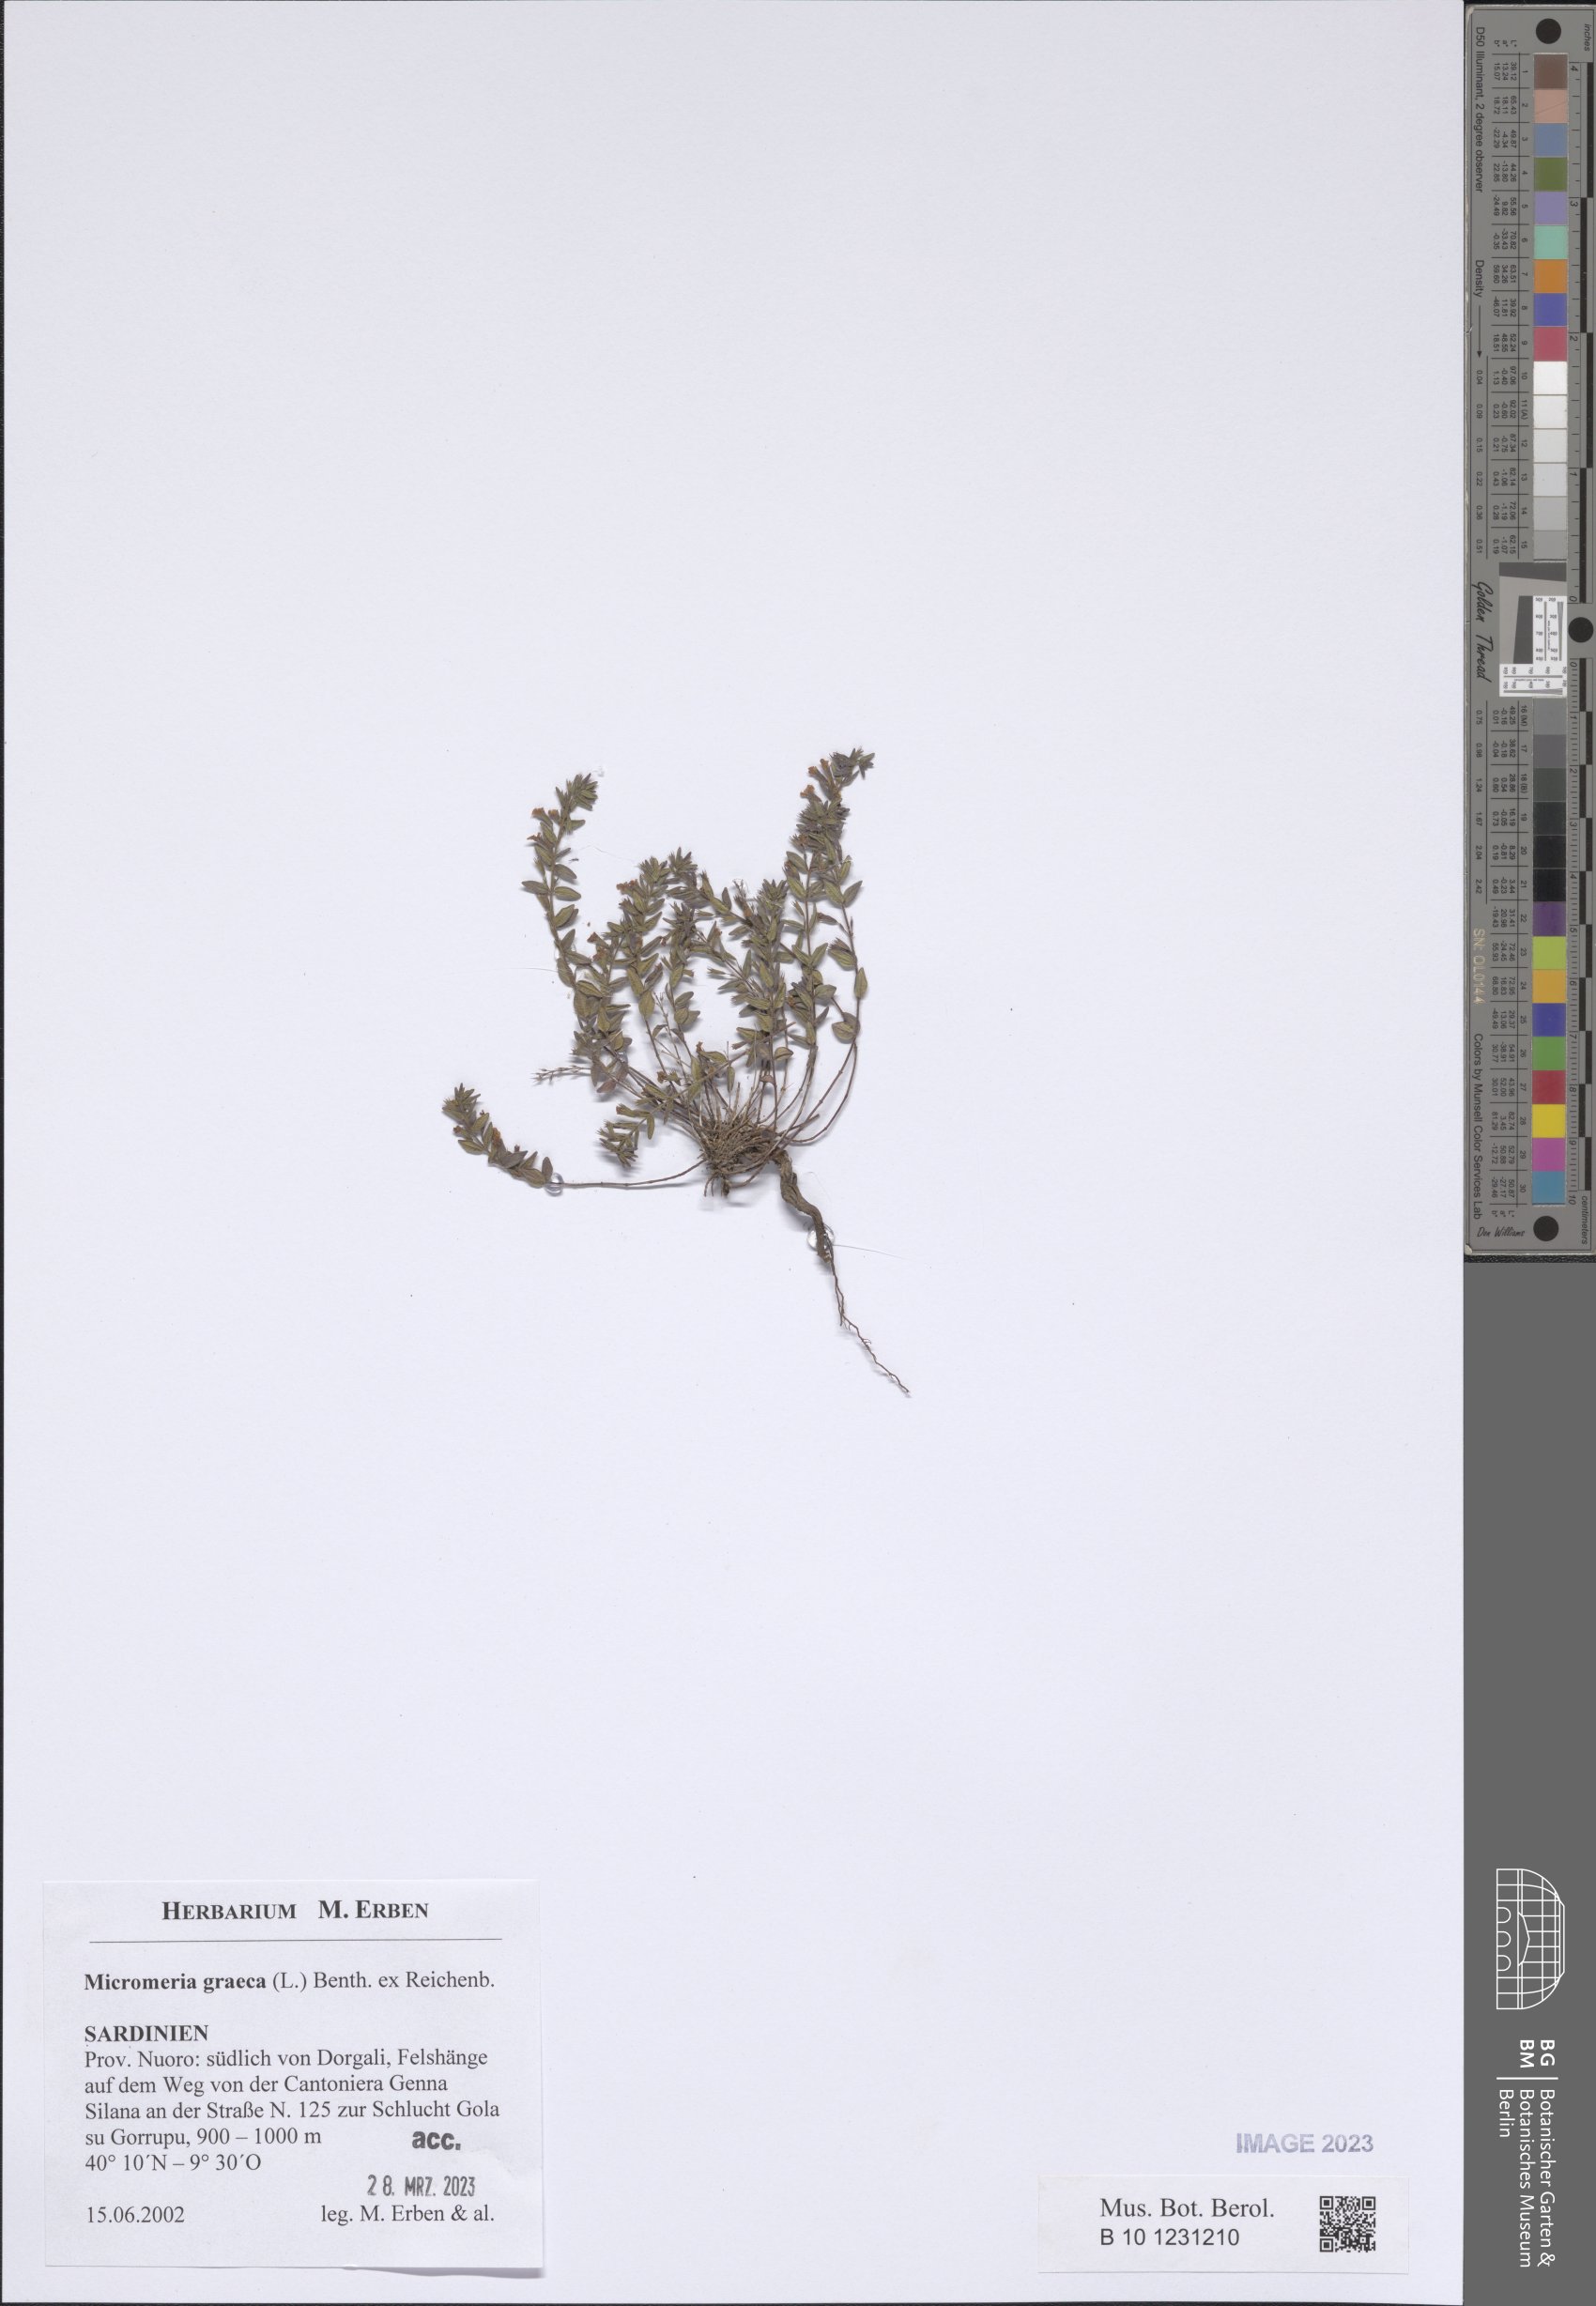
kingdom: Plantae
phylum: Tracheophyta
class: Magnoliopsida
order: Lamiales
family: Lamiaceae
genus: Micromeria
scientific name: Micromeria graeca
